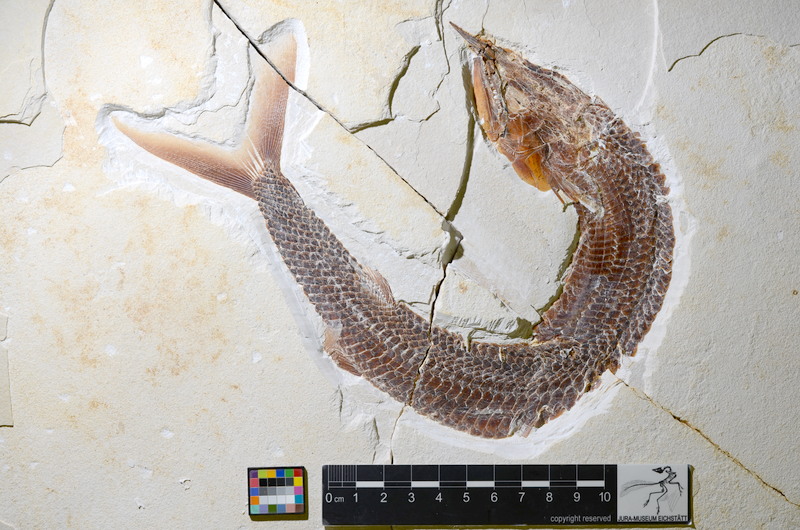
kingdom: Animalia
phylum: Chordata
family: Aspidorhynchidae
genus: Aspidorhynchus
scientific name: Aspidorhynchus sanzenbacheri
